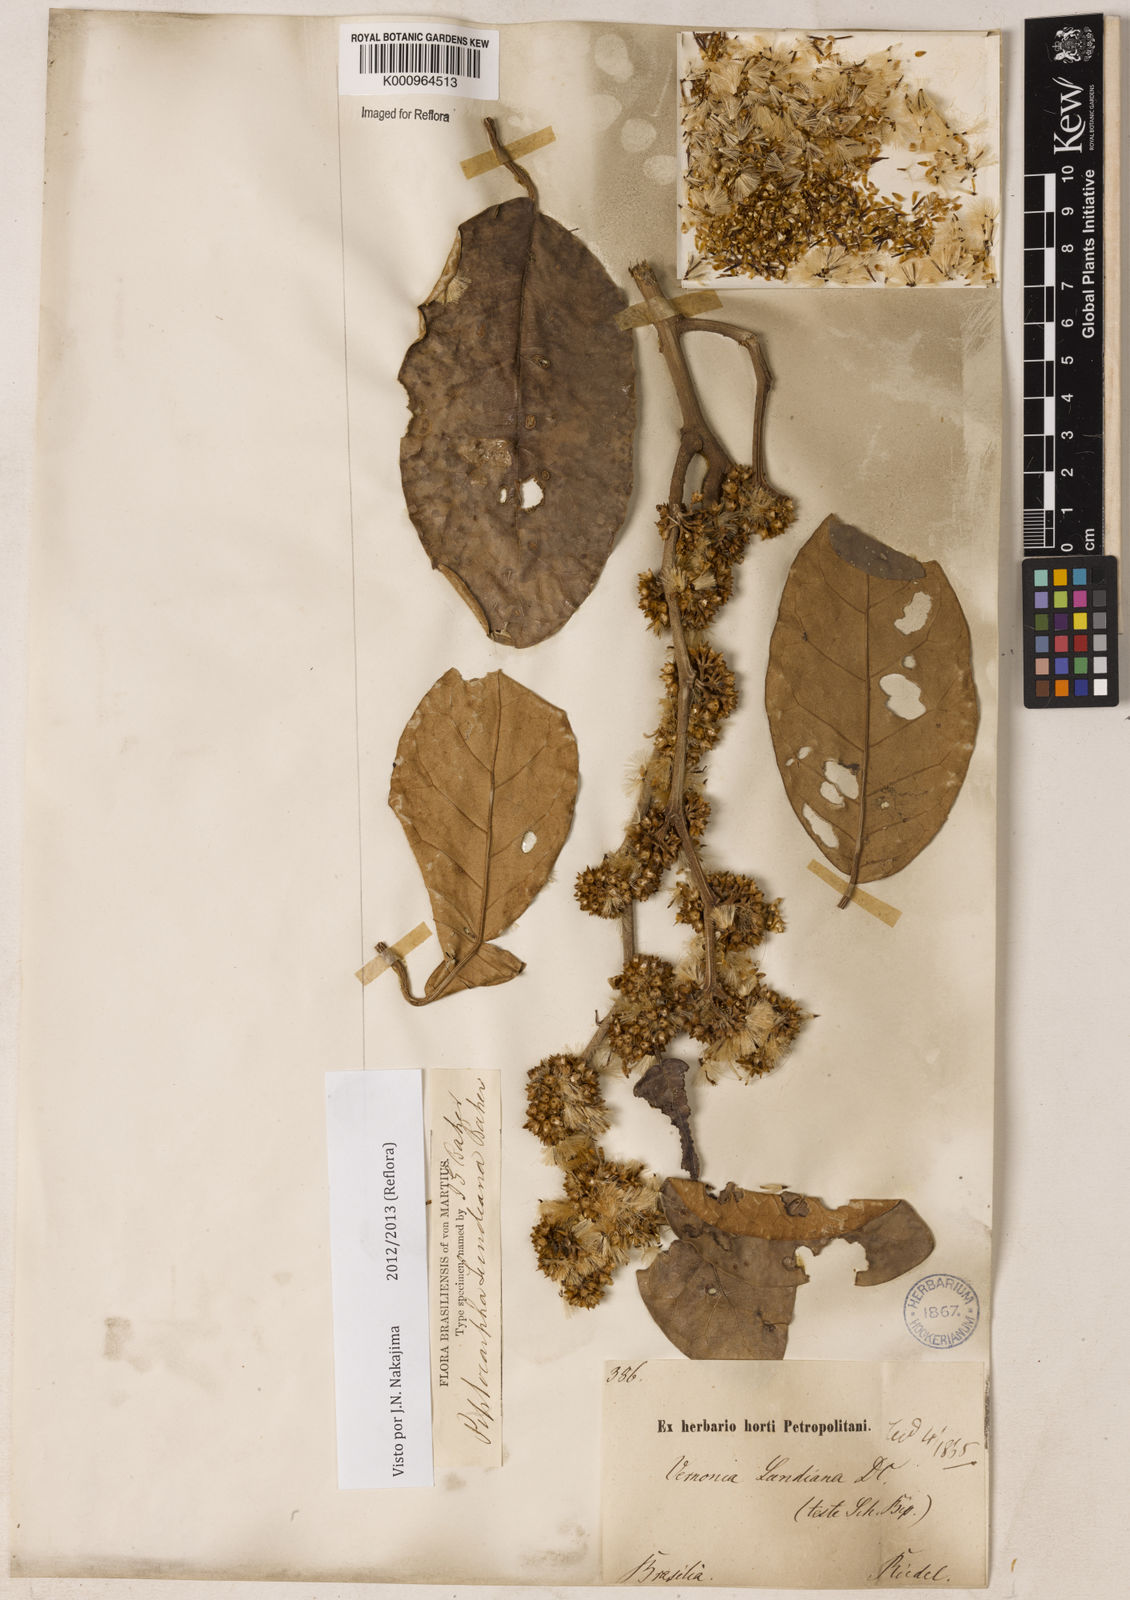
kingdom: Plantae
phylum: Tracheophyta
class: Magnoliopsida
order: Asterales
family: Asteraceae
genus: Piptocarpha
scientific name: Piptocarpha lundiana
